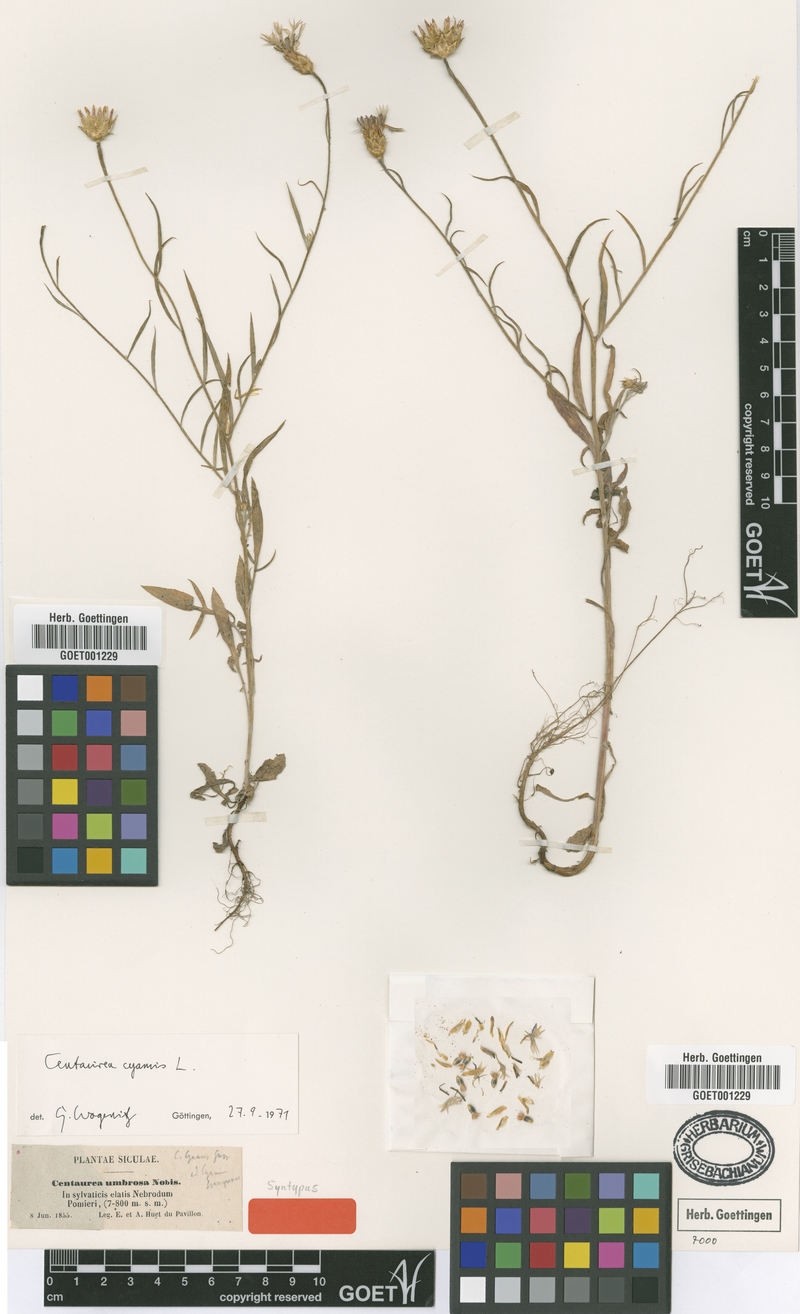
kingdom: Plantae
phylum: Tracheophyta
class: Magnoliopsida
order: Asterales
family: Asteraceae
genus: Centaurea
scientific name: Centaurea cyanus
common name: Cornflower
